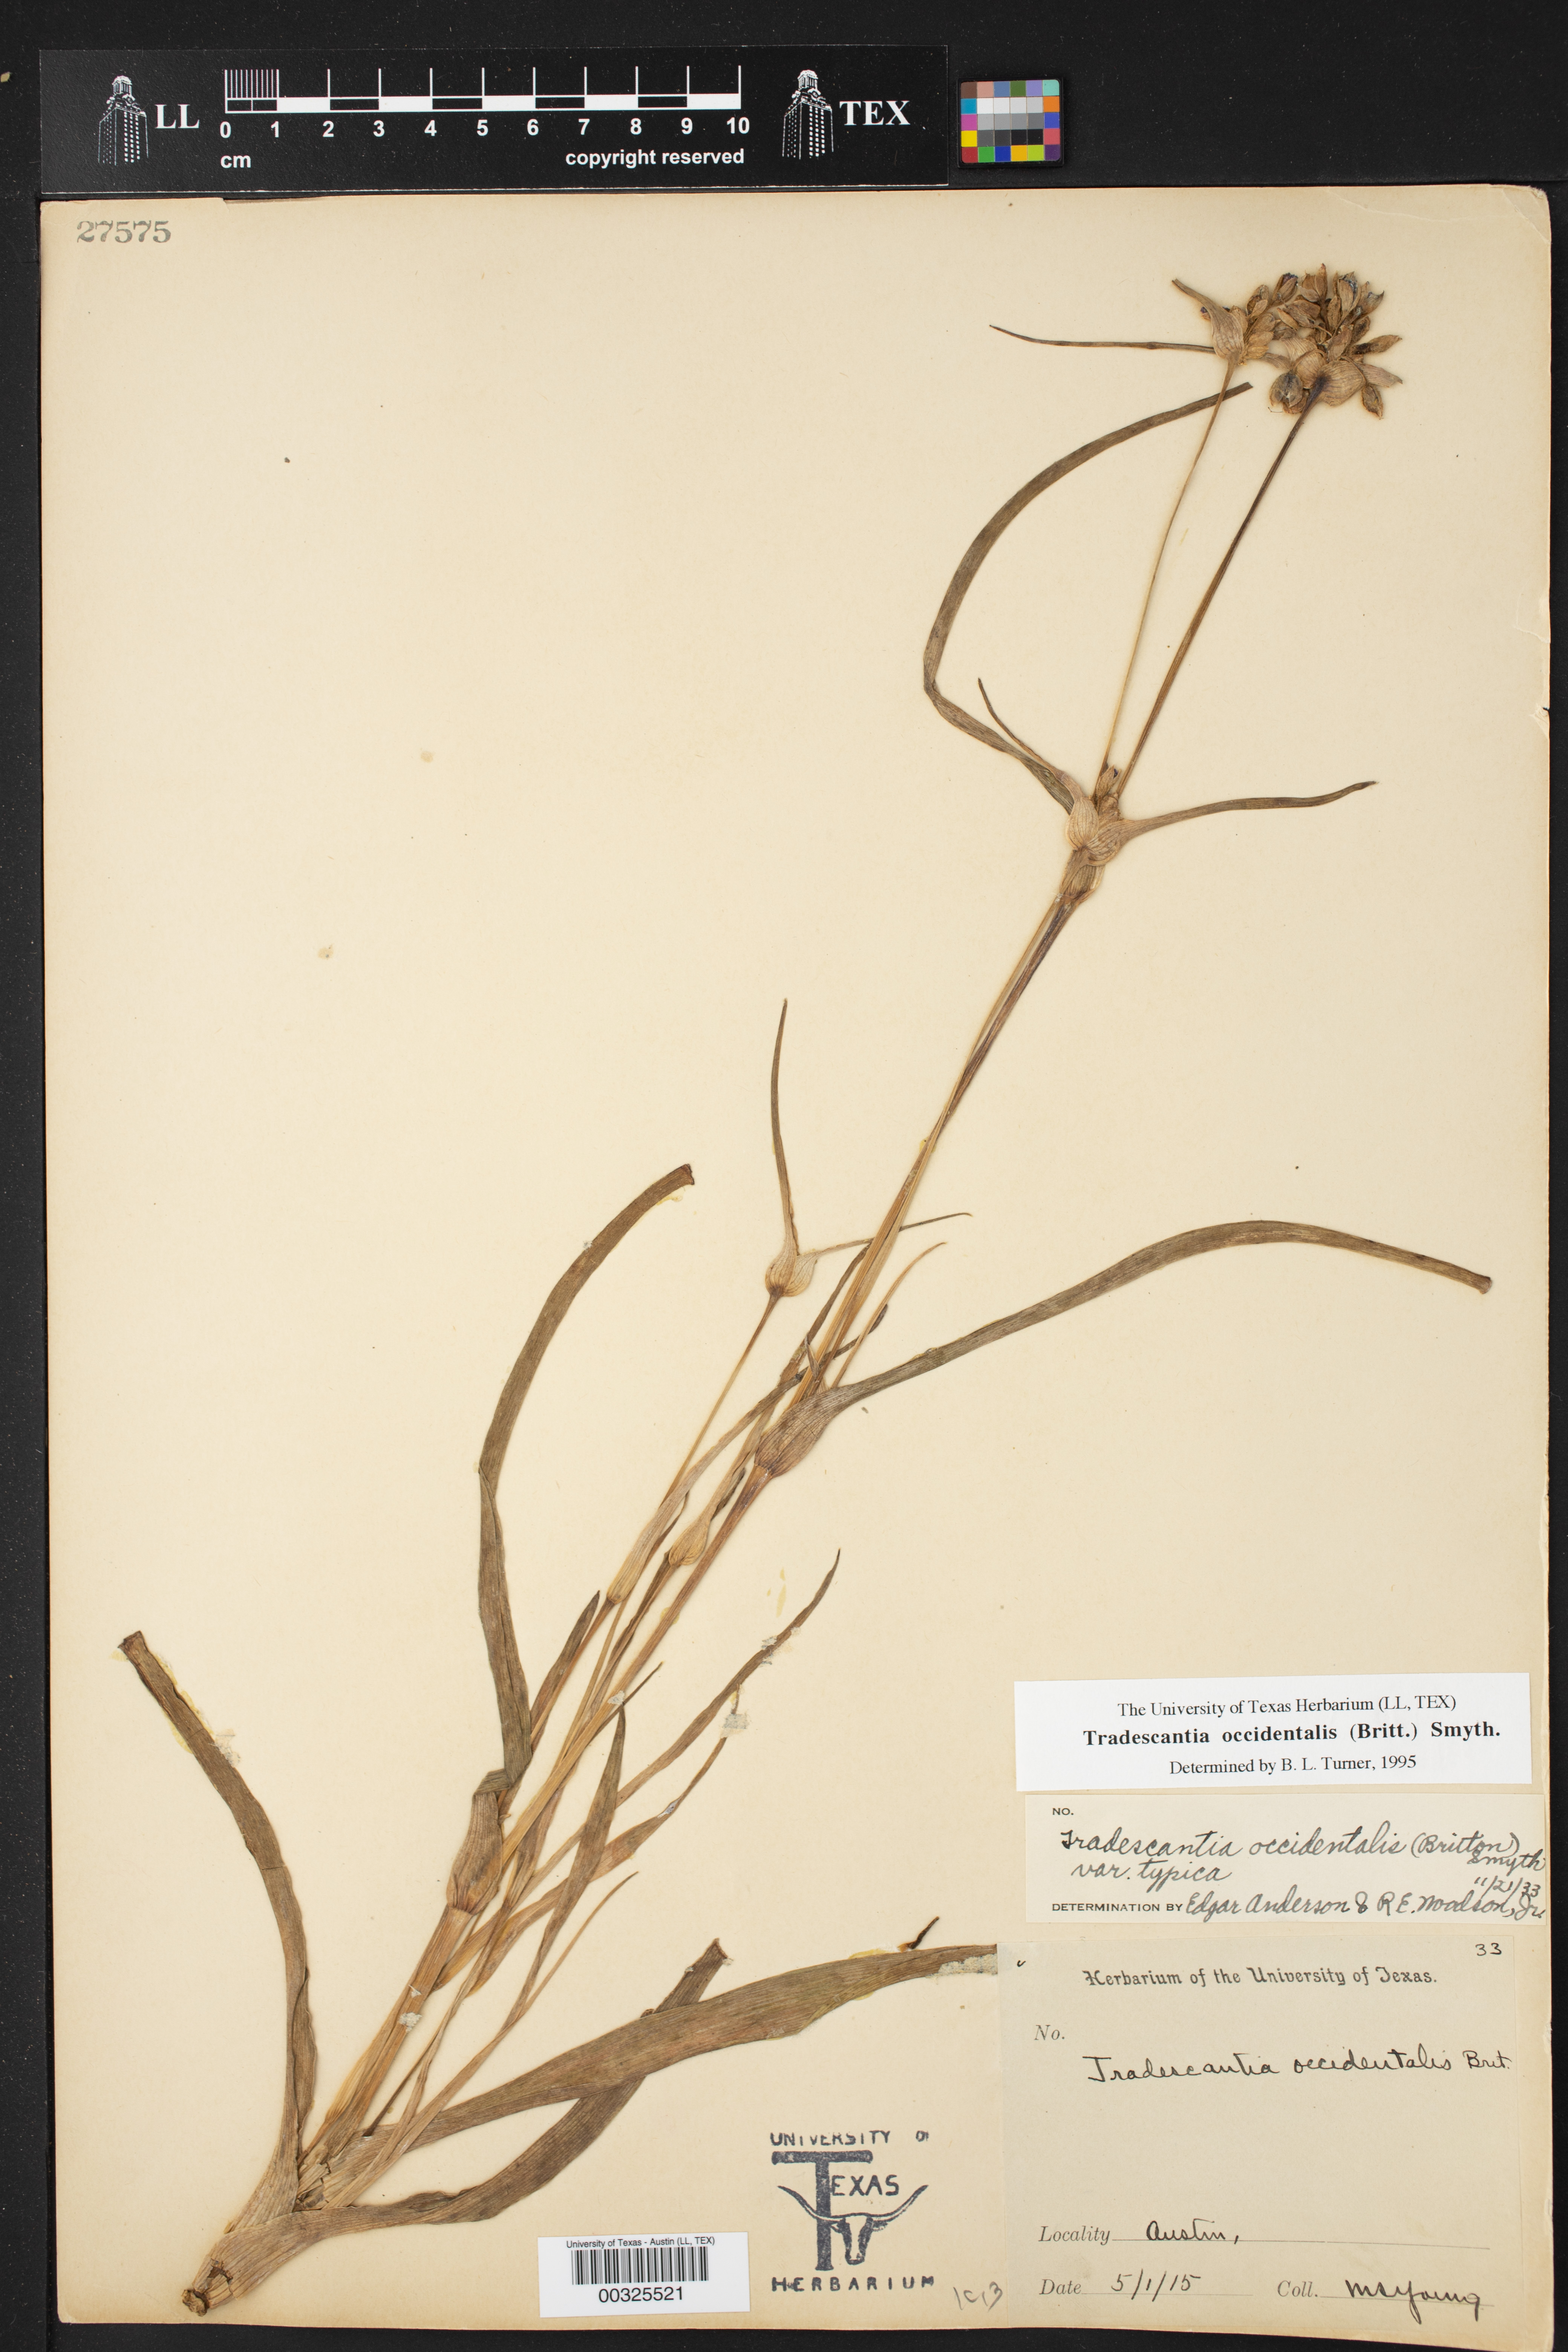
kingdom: Plantae
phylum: Tracheophyta
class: Liliopsida
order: Commelinales
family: Commelinaceae
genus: Tradescantia
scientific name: Tradescantia occidentalis
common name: Prairie spiderwort
